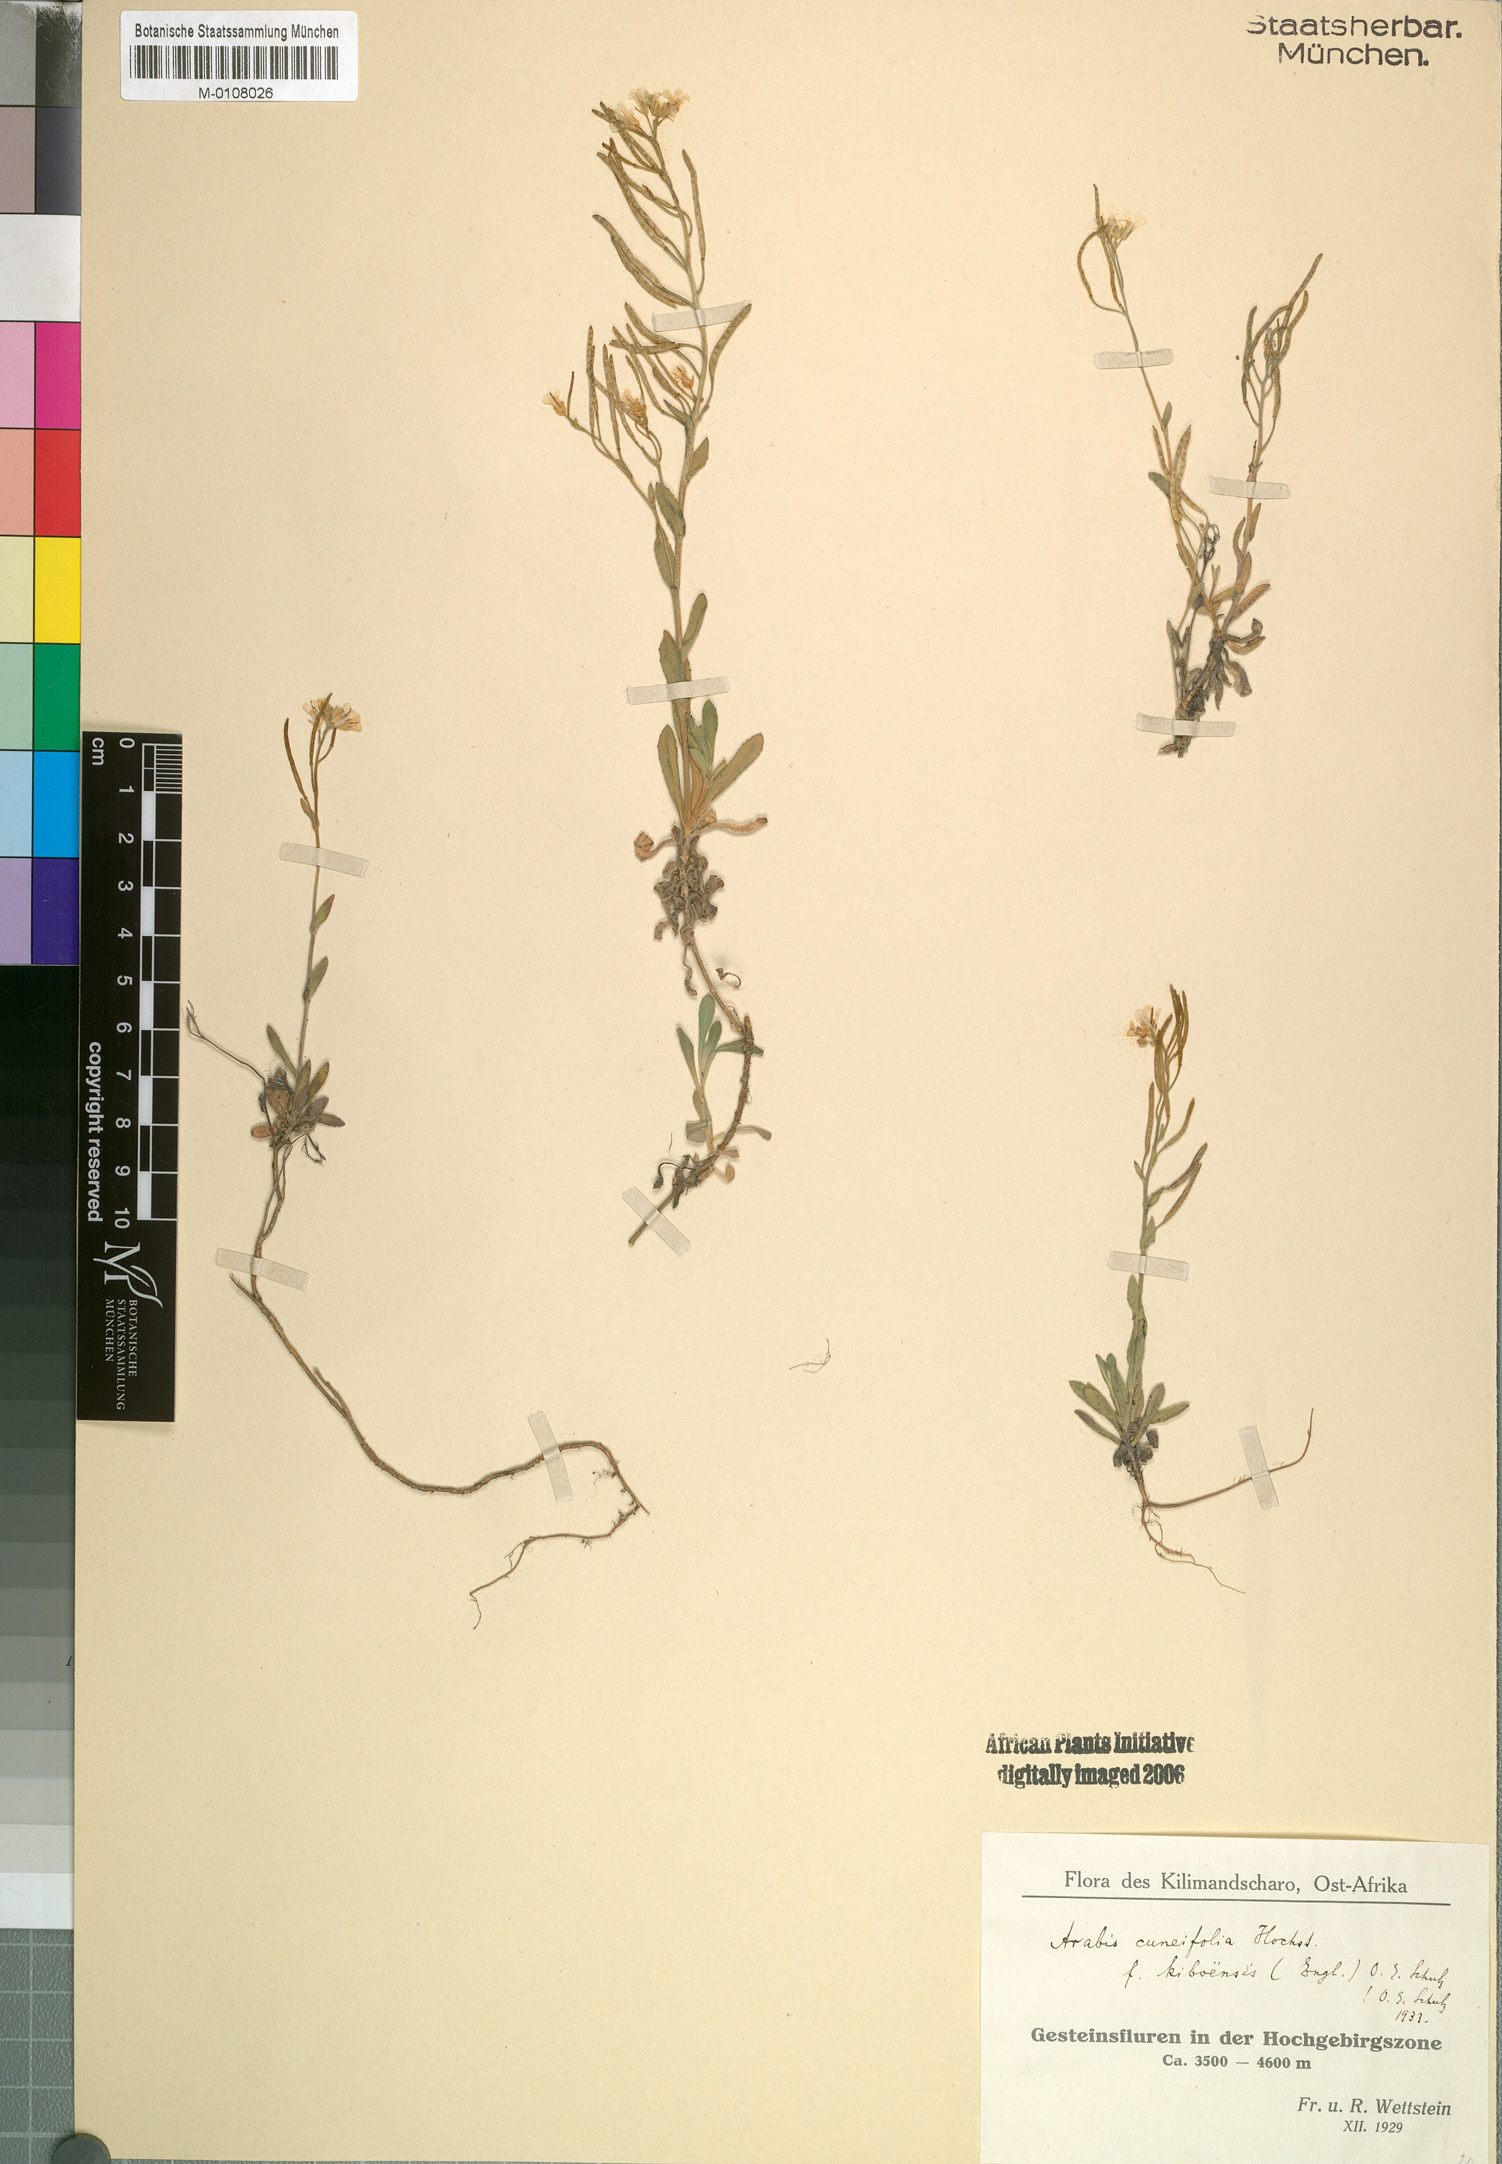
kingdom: Plantae
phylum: Tracheophyta
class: Magnoliopsida
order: Brassicales
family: Brassicaceae
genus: Arabis
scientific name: Arabis alpina
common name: Alpine rock-cress
